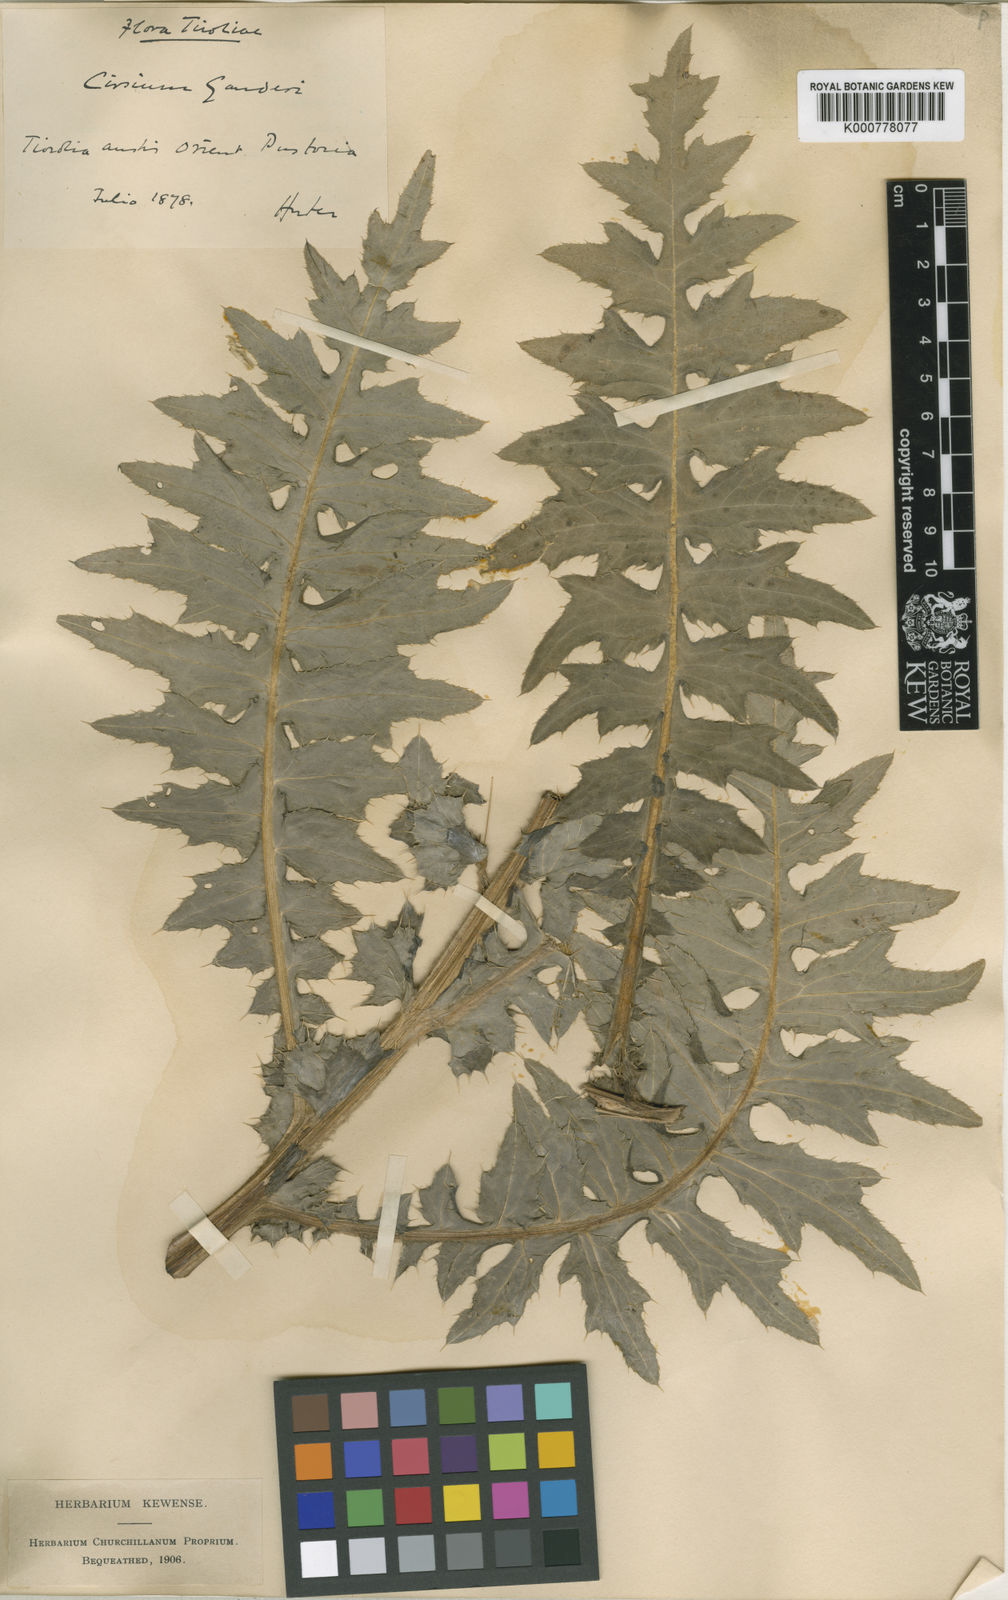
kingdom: Plantae
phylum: Tracheophyta
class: Magnoliopsida
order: Asterales
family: Asteraceae
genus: Cirsium
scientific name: Cirsium erisithales
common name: Yellow thistle
